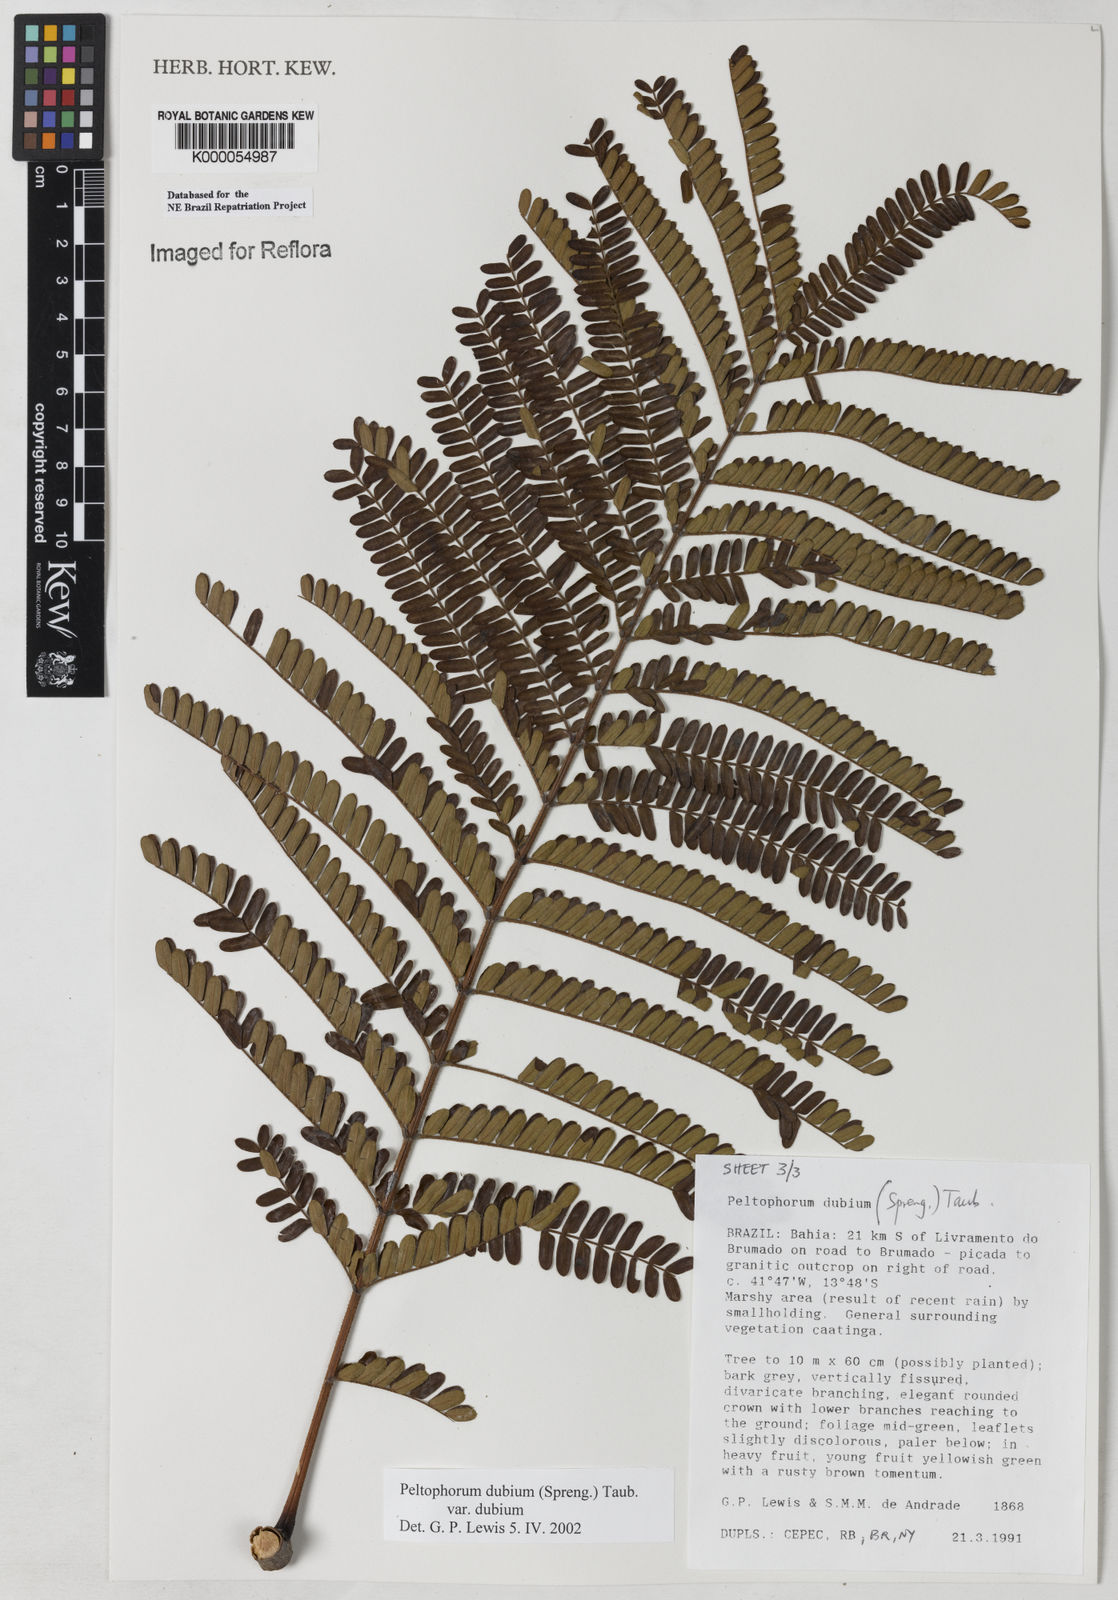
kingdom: Plantae
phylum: Tracheophyta
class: Magnoliopsida
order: Fabales
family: Fabaceae
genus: Peltophorum
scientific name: Peltophorum dubium
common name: Horsebush
